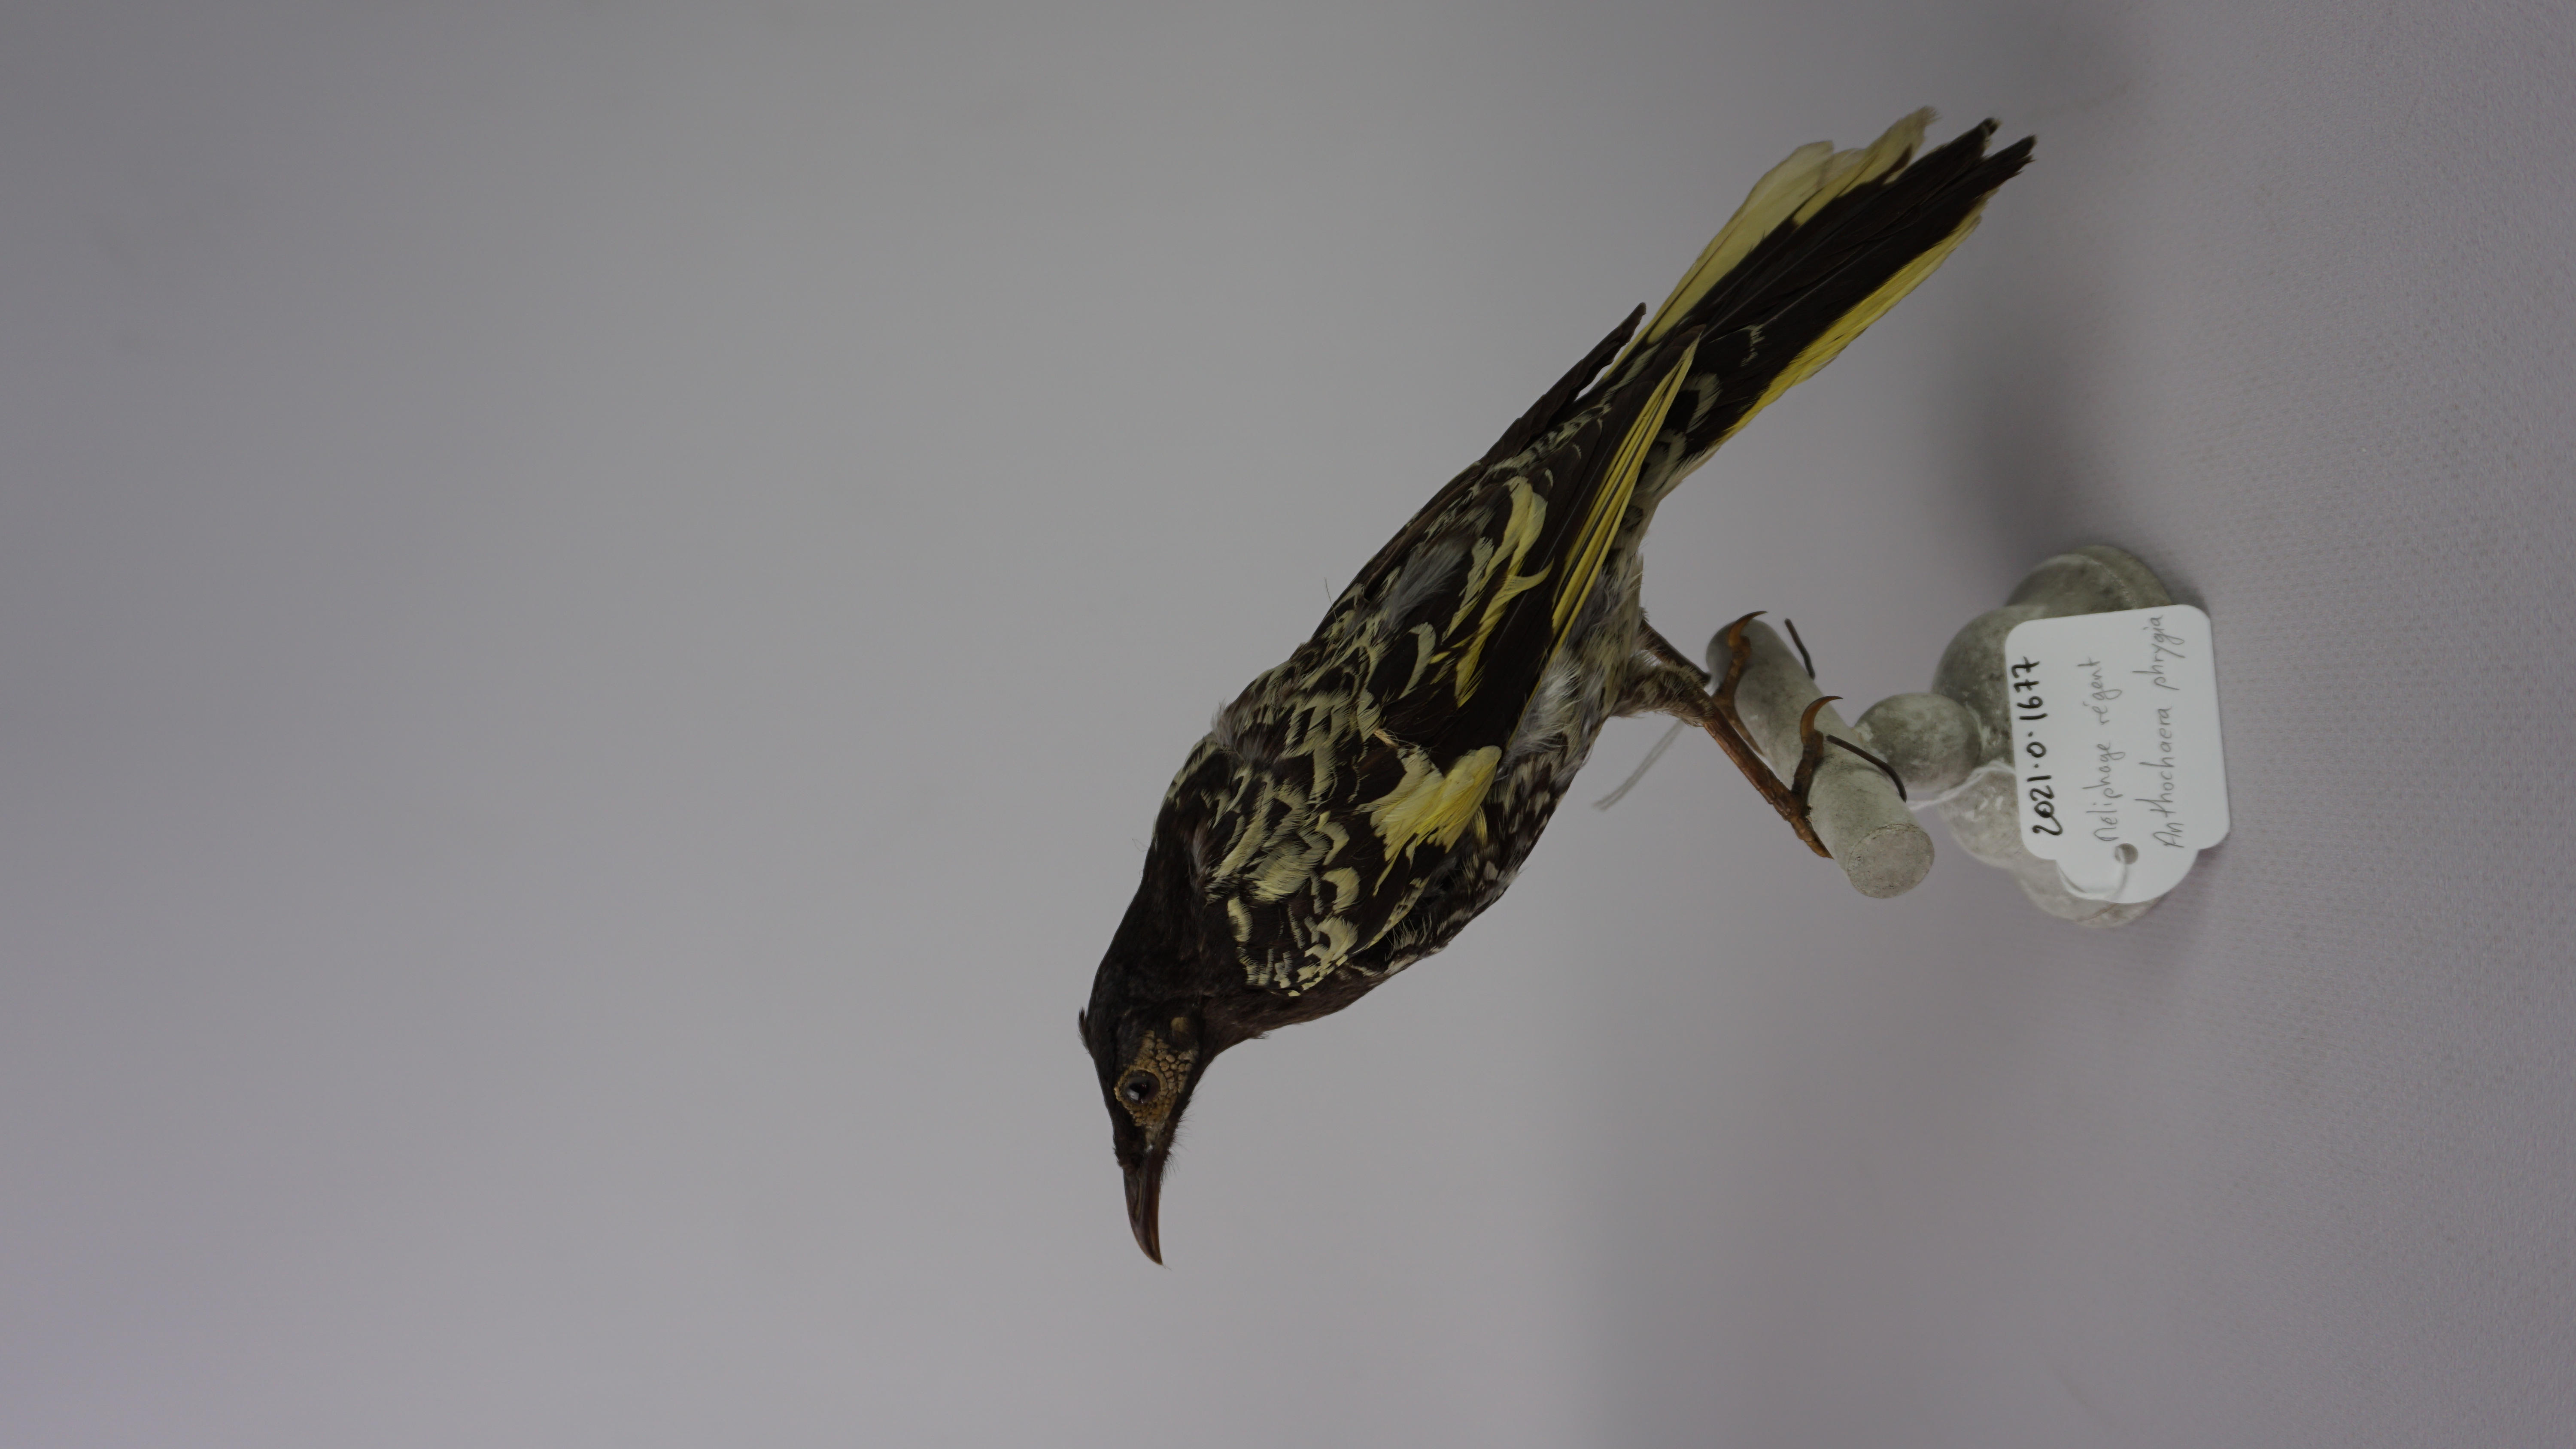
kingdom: Animalia
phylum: Chordata
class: Aves
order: Passeriformes
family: Meliphagidae
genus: Anthochaera
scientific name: Anthochaera phrygia
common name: Regent honeyeater
